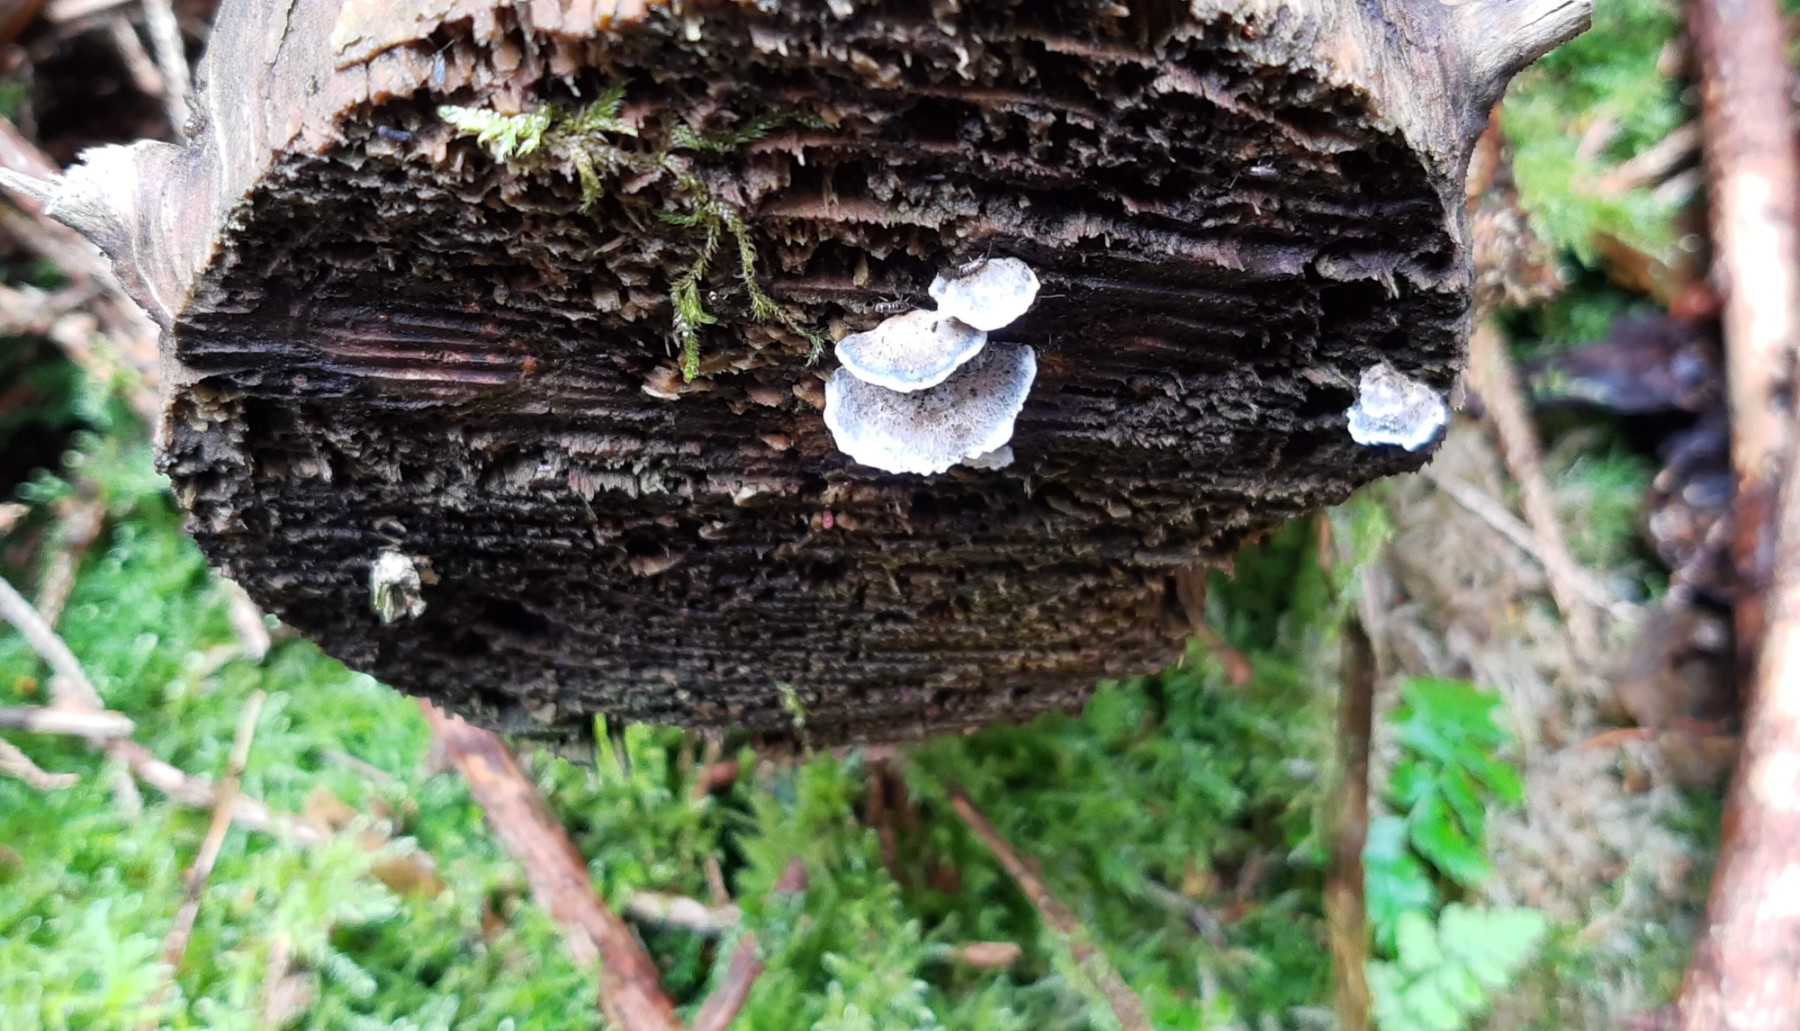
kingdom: Fungi
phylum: Basidiomycota
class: Agaricomycetes
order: Polyporales
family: Polyporaceae
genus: Cyanosporus
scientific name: Cyanosporus caesius
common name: blålig kødporesvamp
